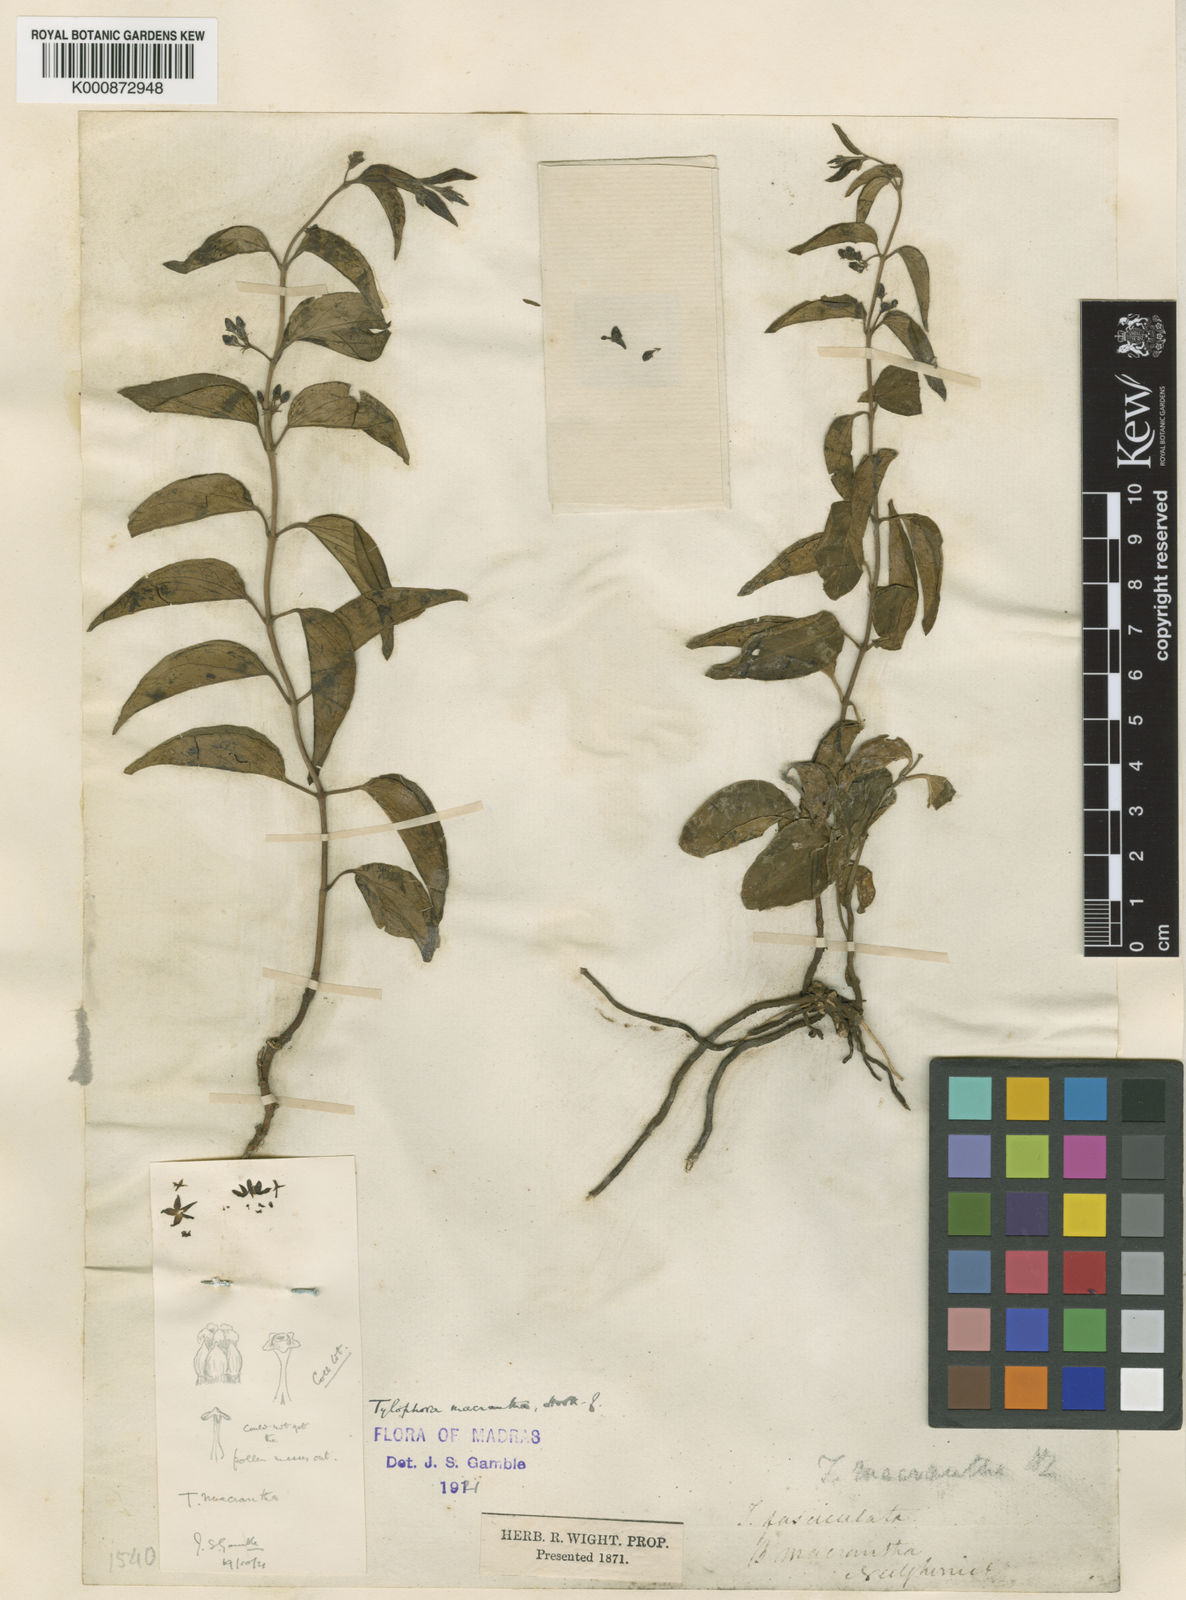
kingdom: Plantae
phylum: Tracheophyta
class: Magnoliopsida
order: Gentianales
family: Apocynaceae
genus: Vincetoxicum
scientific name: Vincetoxicum hookerianum
